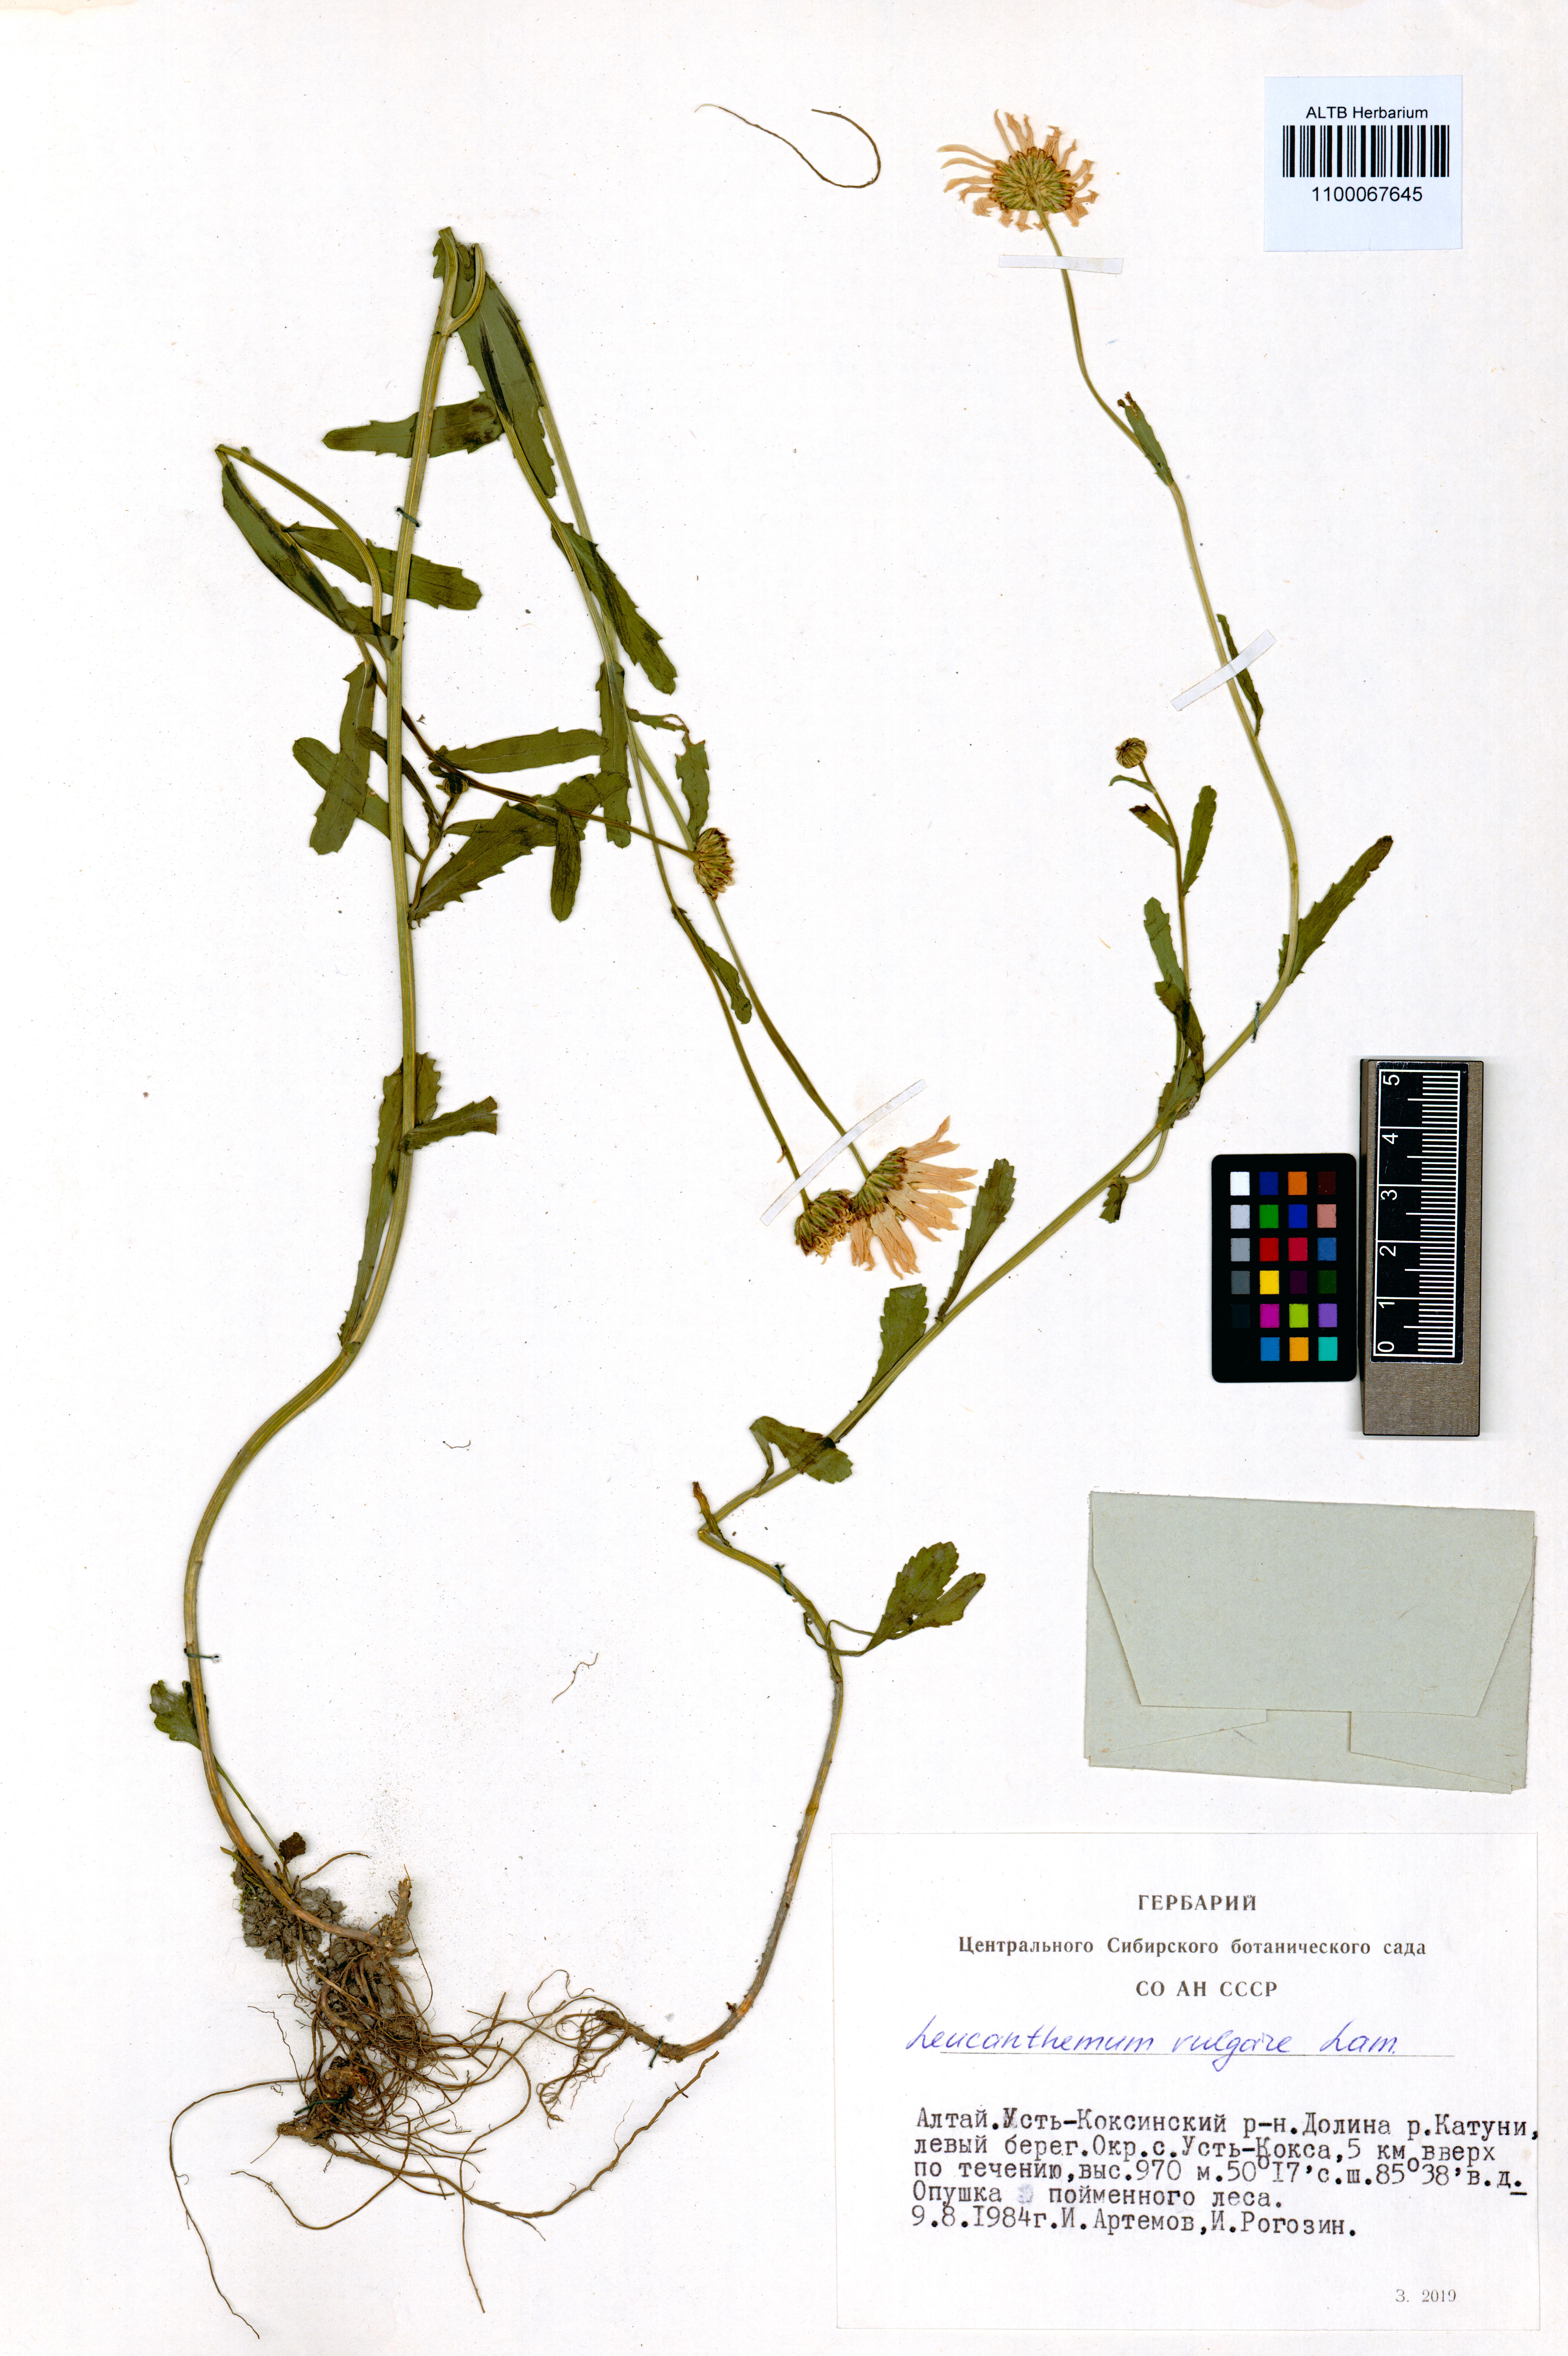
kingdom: Plantae
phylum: Tracheophyta
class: Magnoliopsida
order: Asterales
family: Asteraceae
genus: Leucanthemum
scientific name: Leucanthemum vulgare
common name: Oxeye daisy
